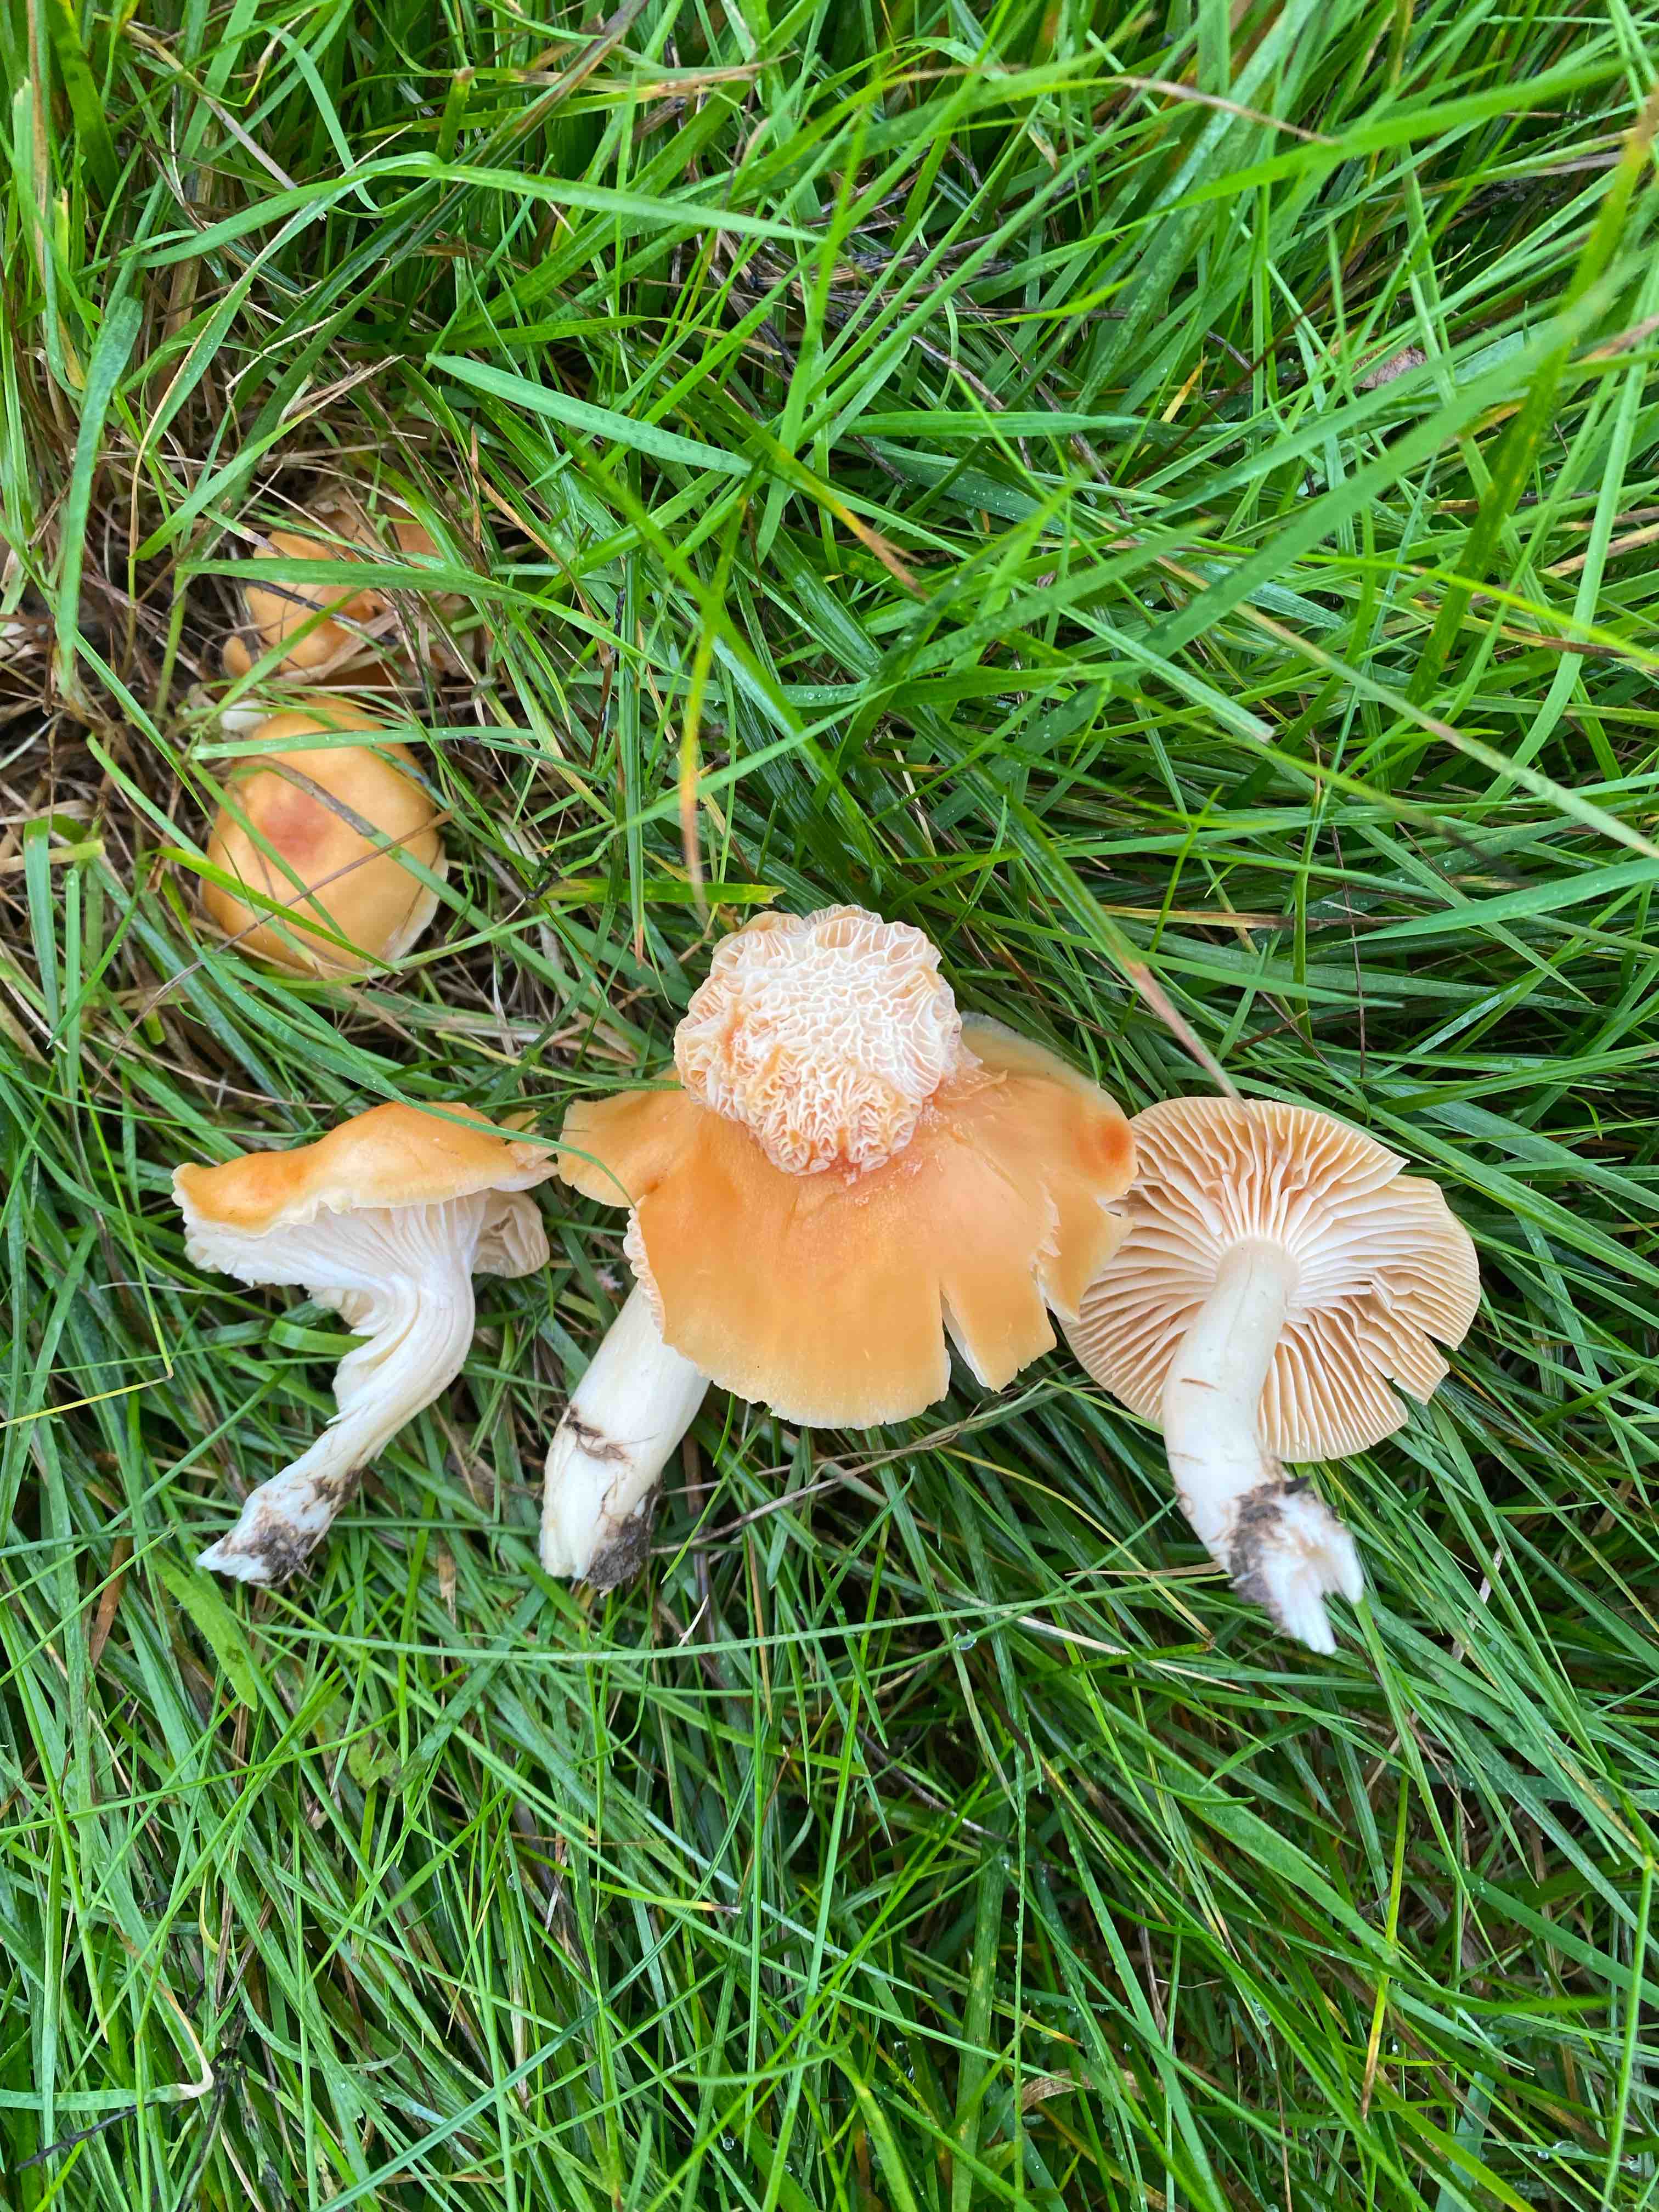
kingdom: Fungi
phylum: Basidiomycota
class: Agaricomycetes
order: Agaricales
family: Hygrophoraceae
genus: Cuphophyllus
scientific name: Cuphophyllus pratensis
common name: eng-vokshat
